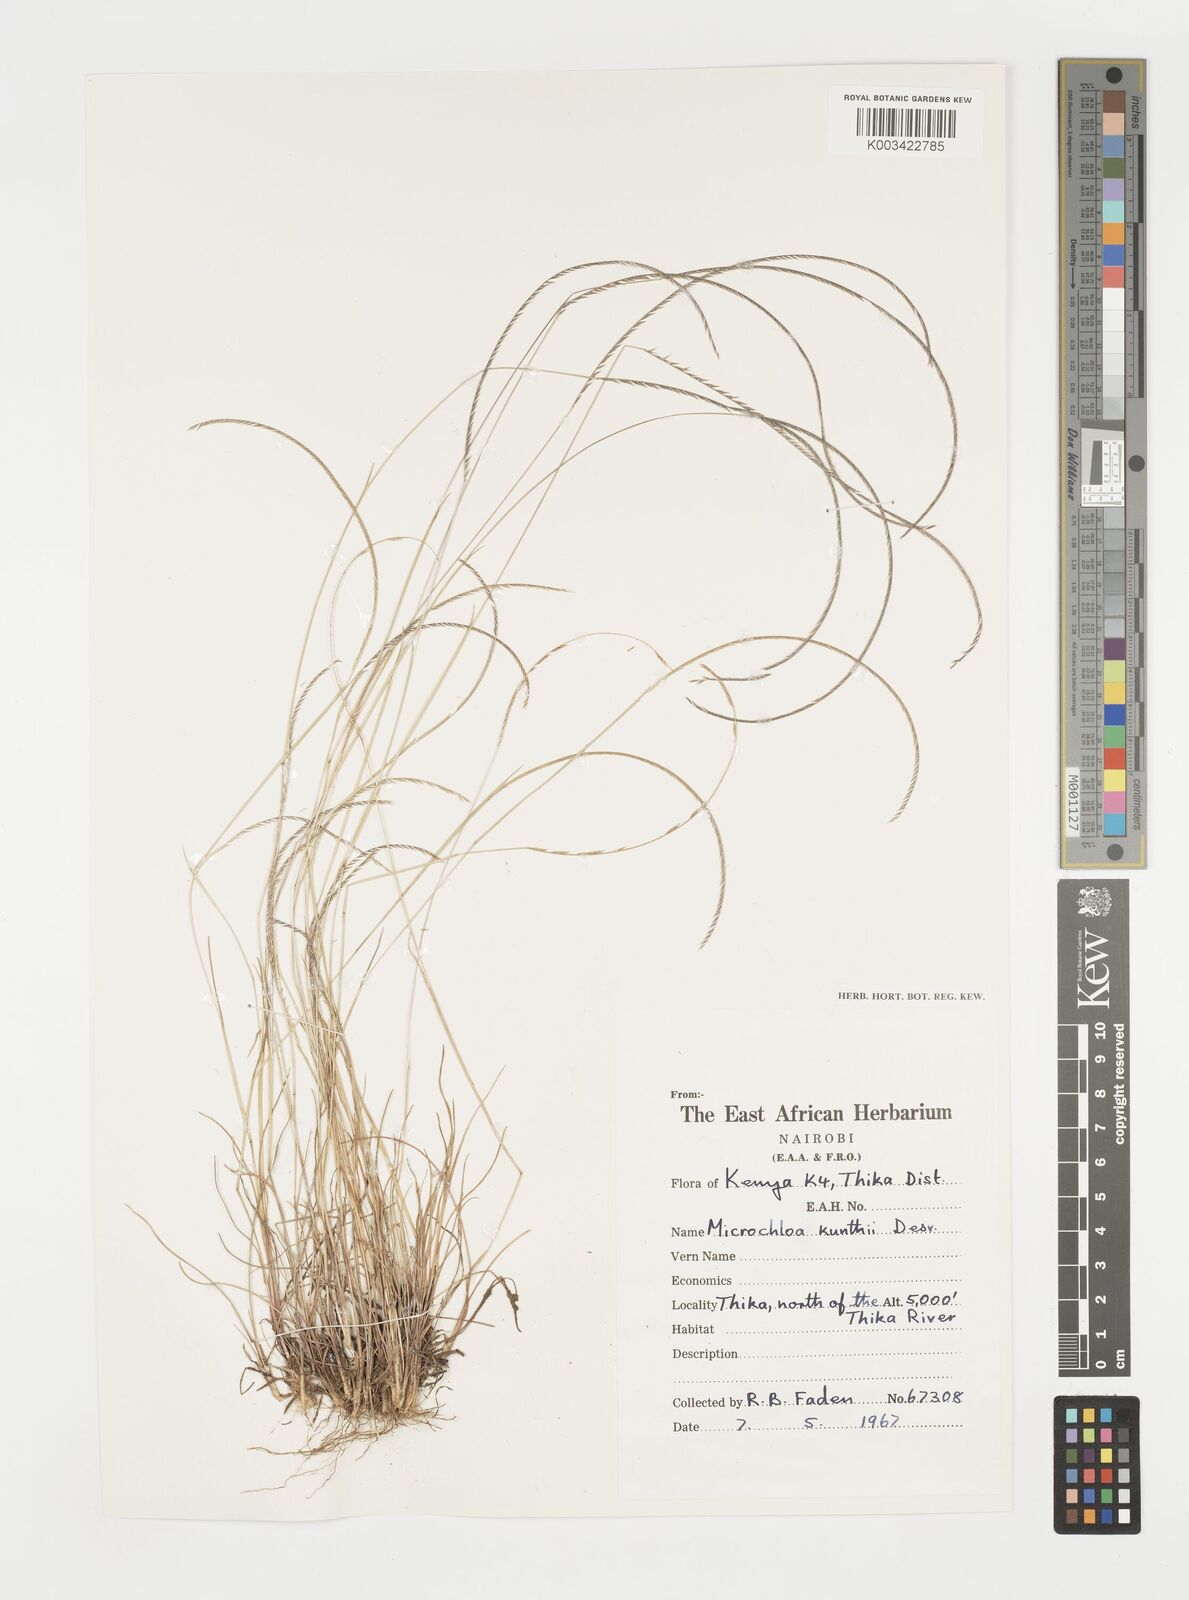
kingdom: Plantae
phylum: Tracheophyta
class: Liliopsida
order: Poales
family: Poaceae
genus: Microchloa
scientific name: Microchloa kunthii
